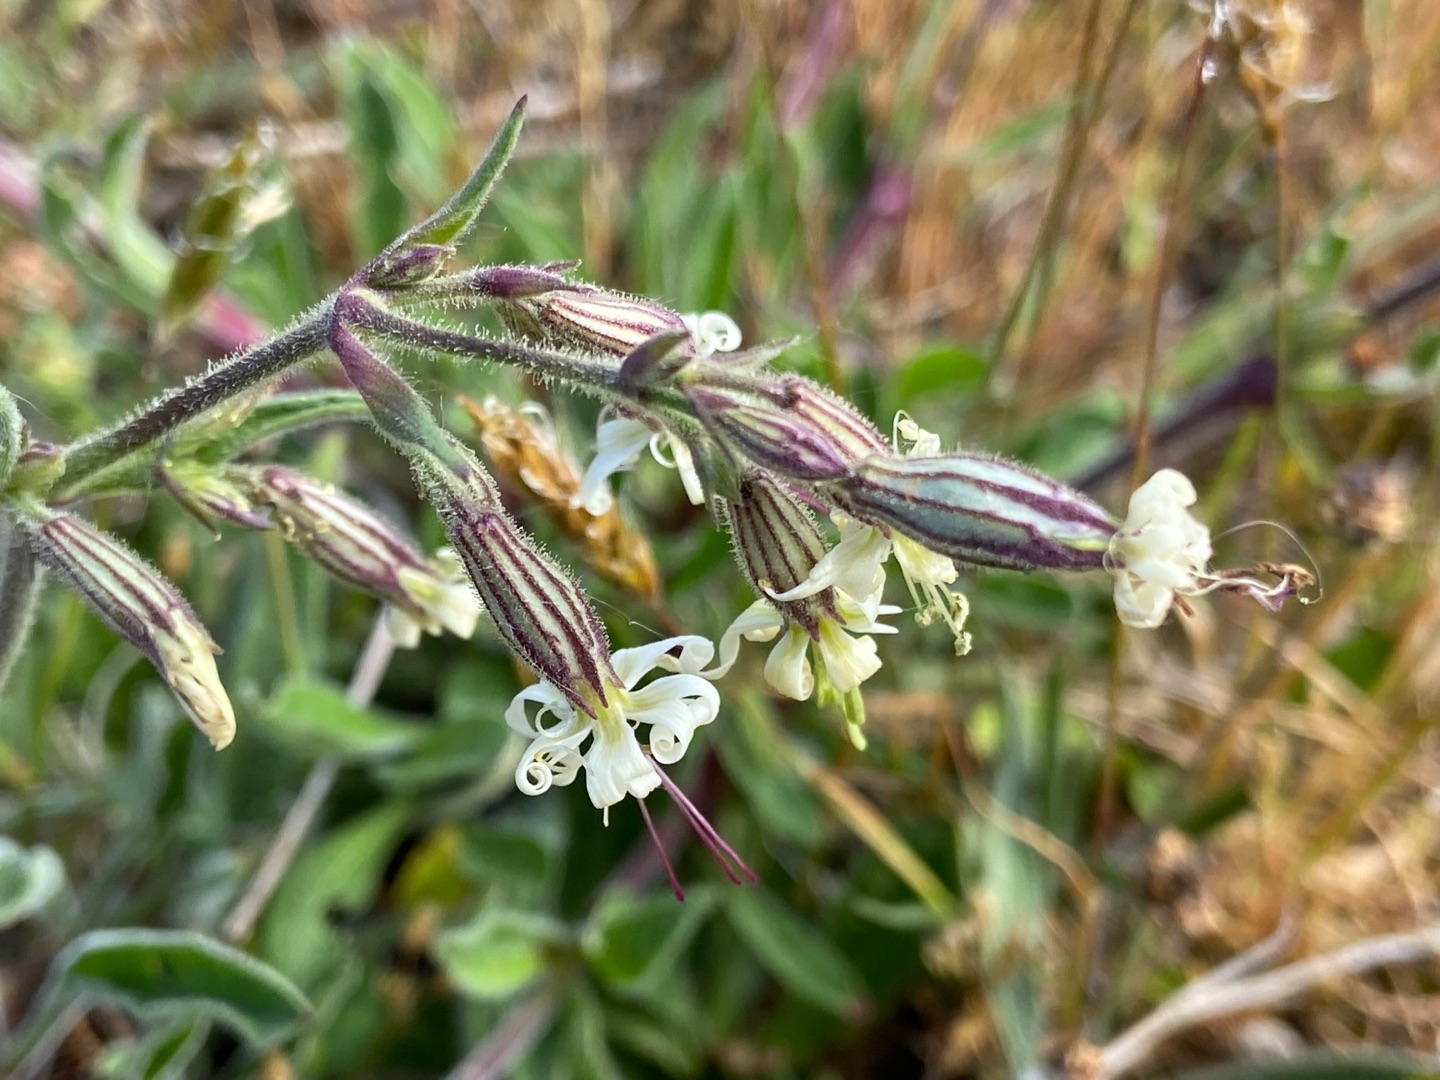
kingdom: Plantae
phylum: Tracheophyta
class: Magnoliopsida
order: Caryophyllales
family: Caryophyllaceae
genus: Silene
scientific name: Silene nutans
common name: Nikkende limurt
